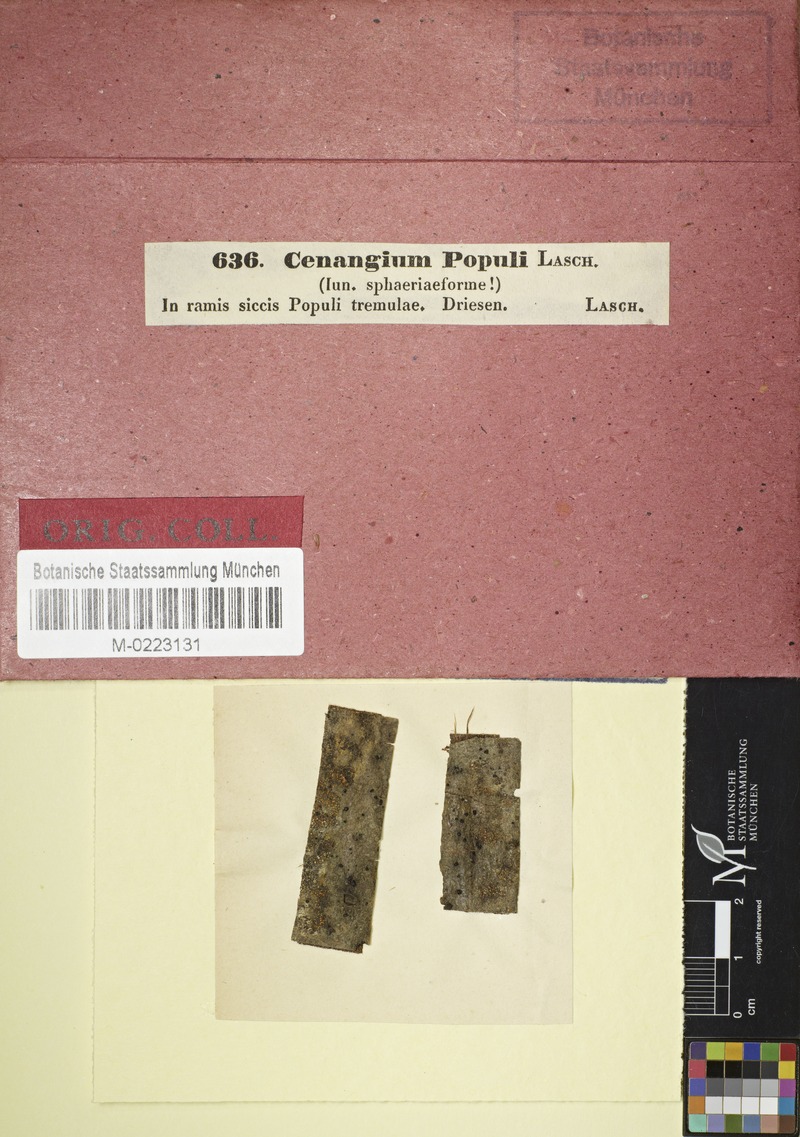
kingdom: Fungi
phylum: Ascomycota
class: Leotiomycetes
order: Helotiales
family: Cenangiaceae
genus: Cenangium
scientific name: Cenangium
